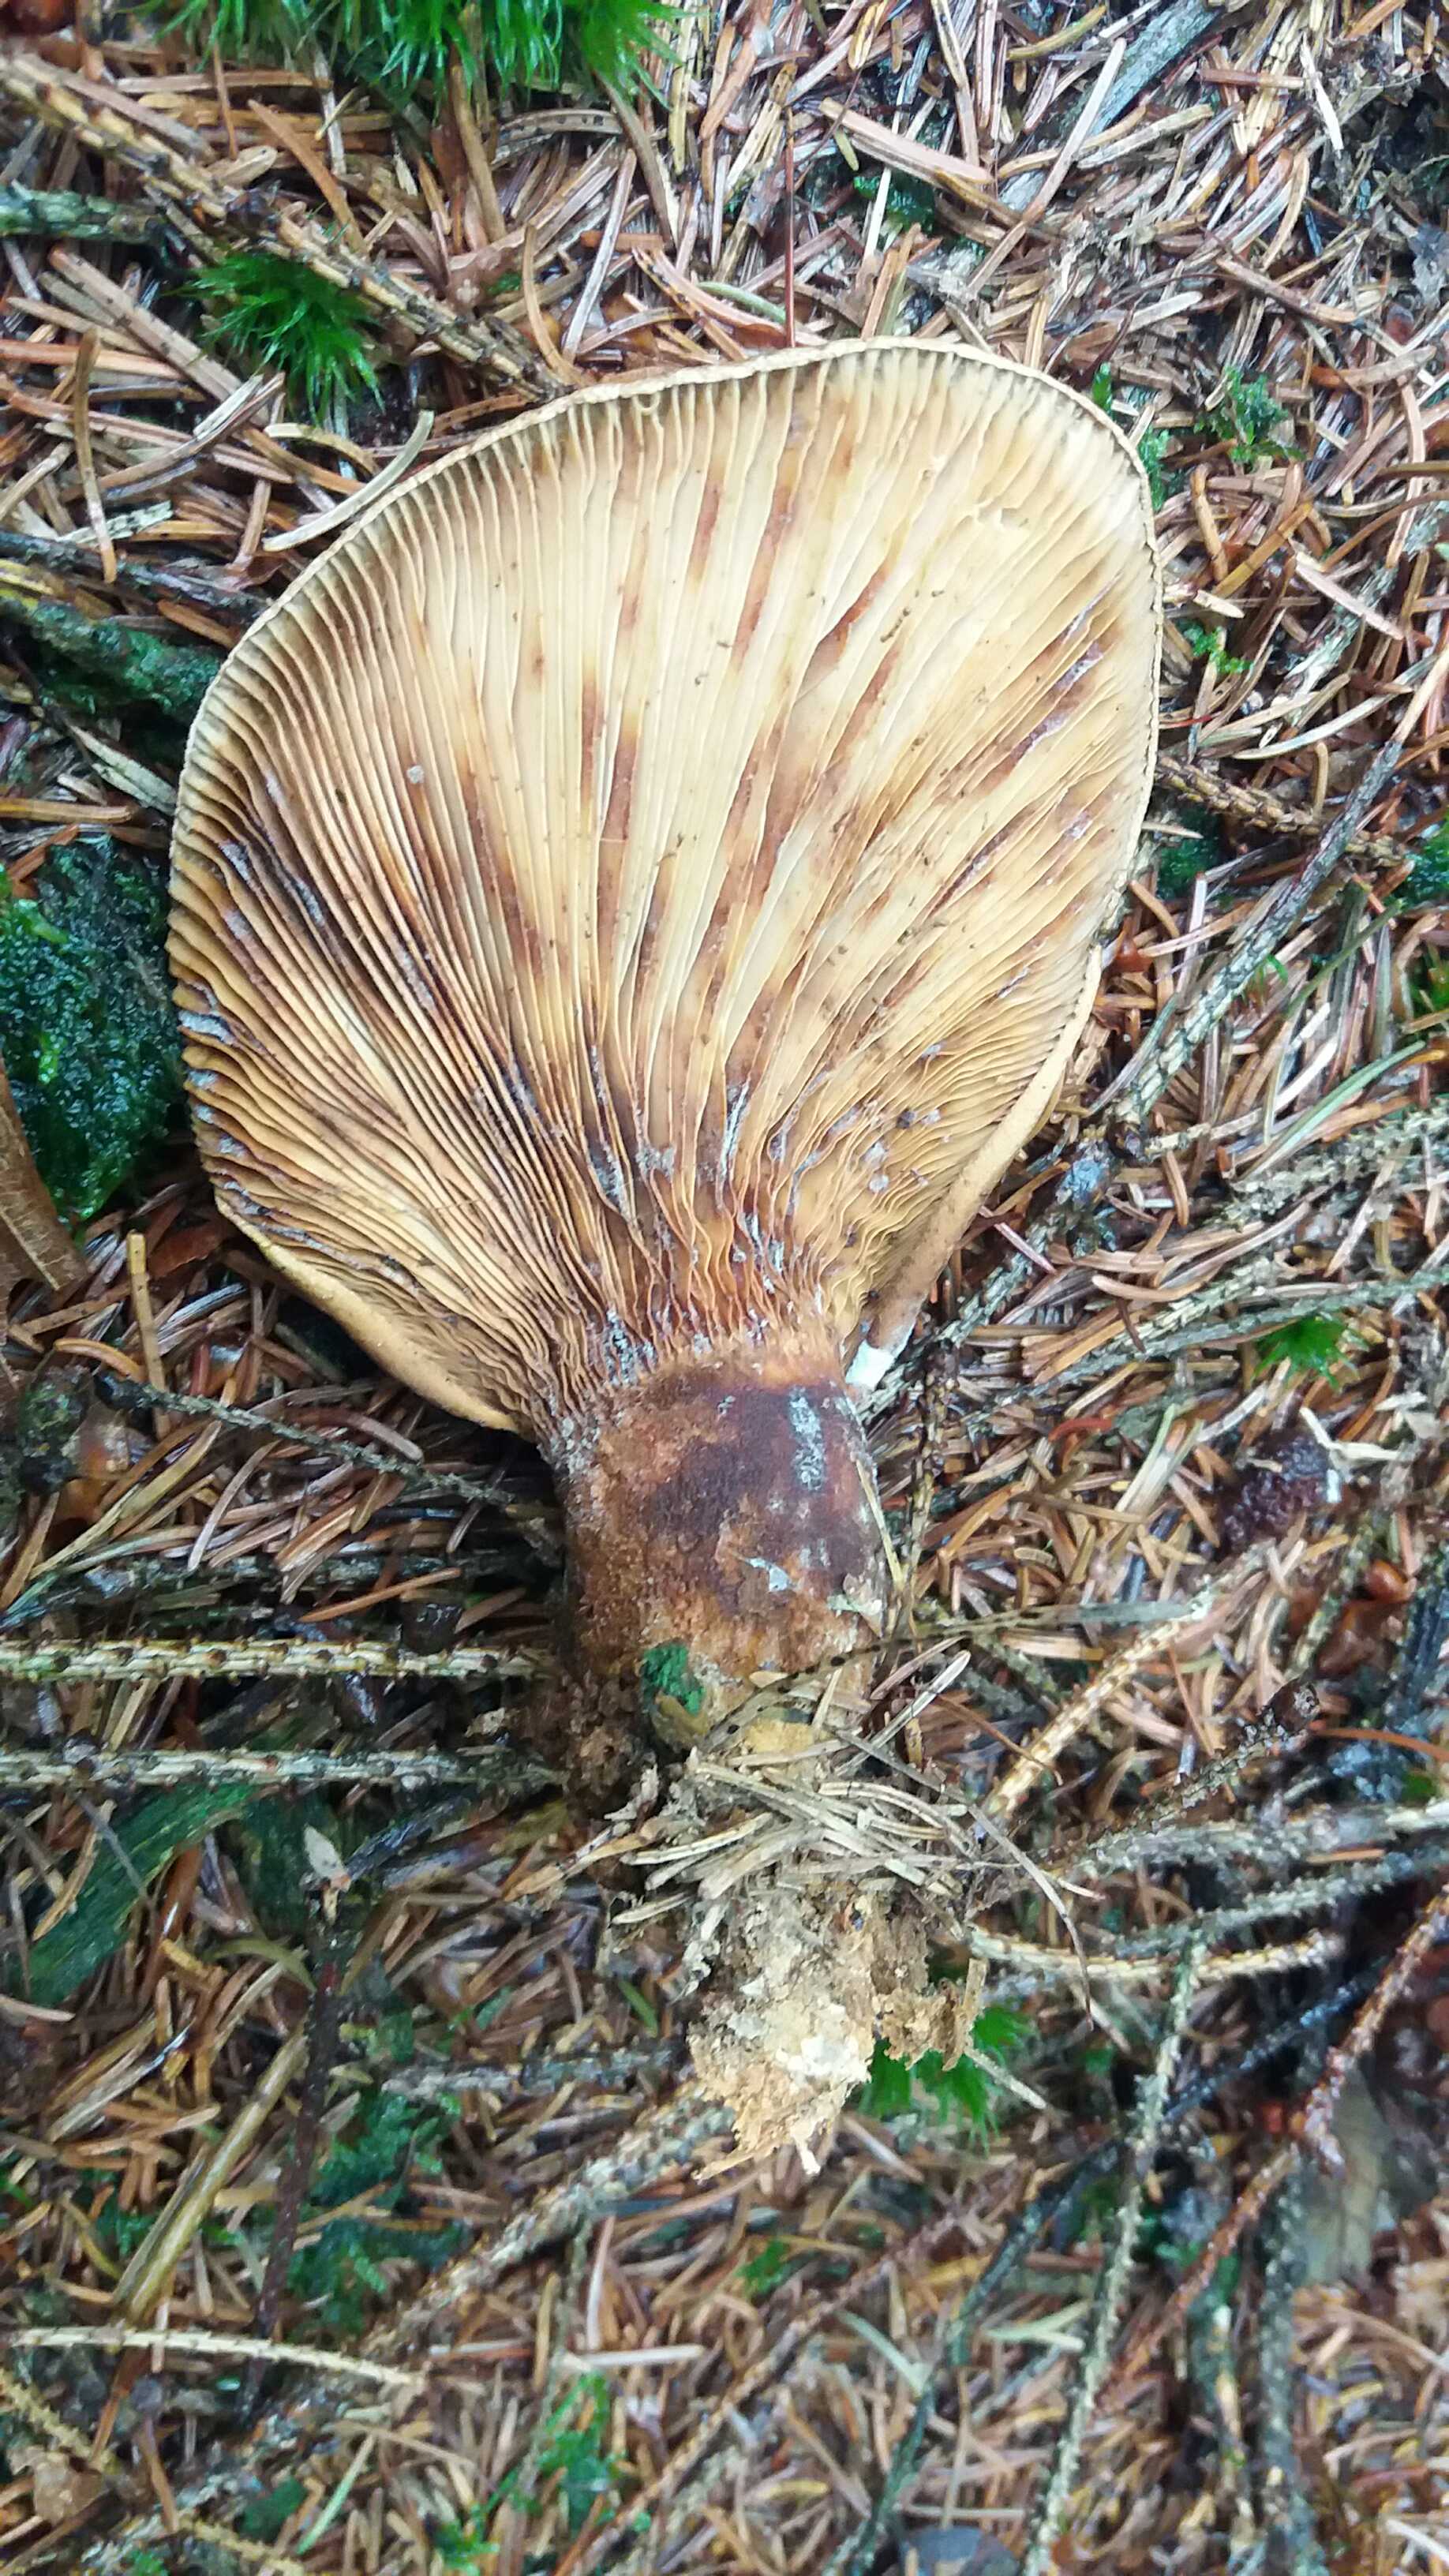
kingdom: Fungi
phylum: Basidiomycota
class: Agaricomycetes
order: Boletales
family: Tapinellaceae
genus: Tapinella
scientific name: Tapinella atrotomentosa
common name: sortfiltet viftesvamp
